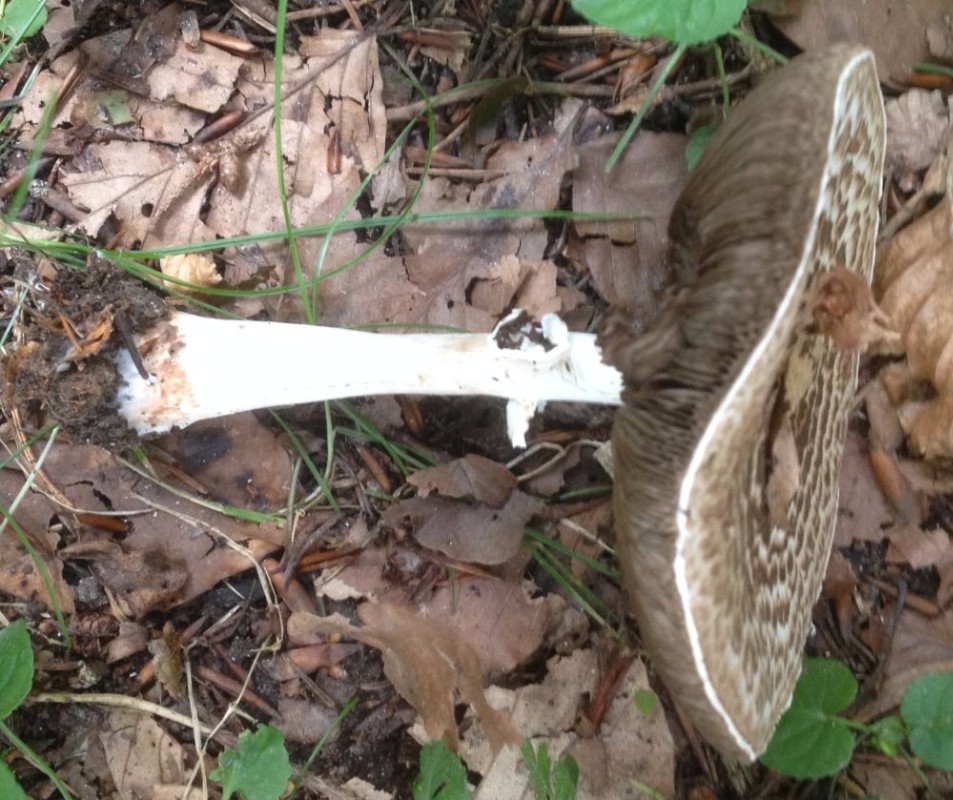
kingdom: Fungi
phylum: Basidiomycota
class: Agaricomycetes
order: Agaricales
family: Agaricaceae
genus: Agaricus
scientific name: Agaricus impudicus
